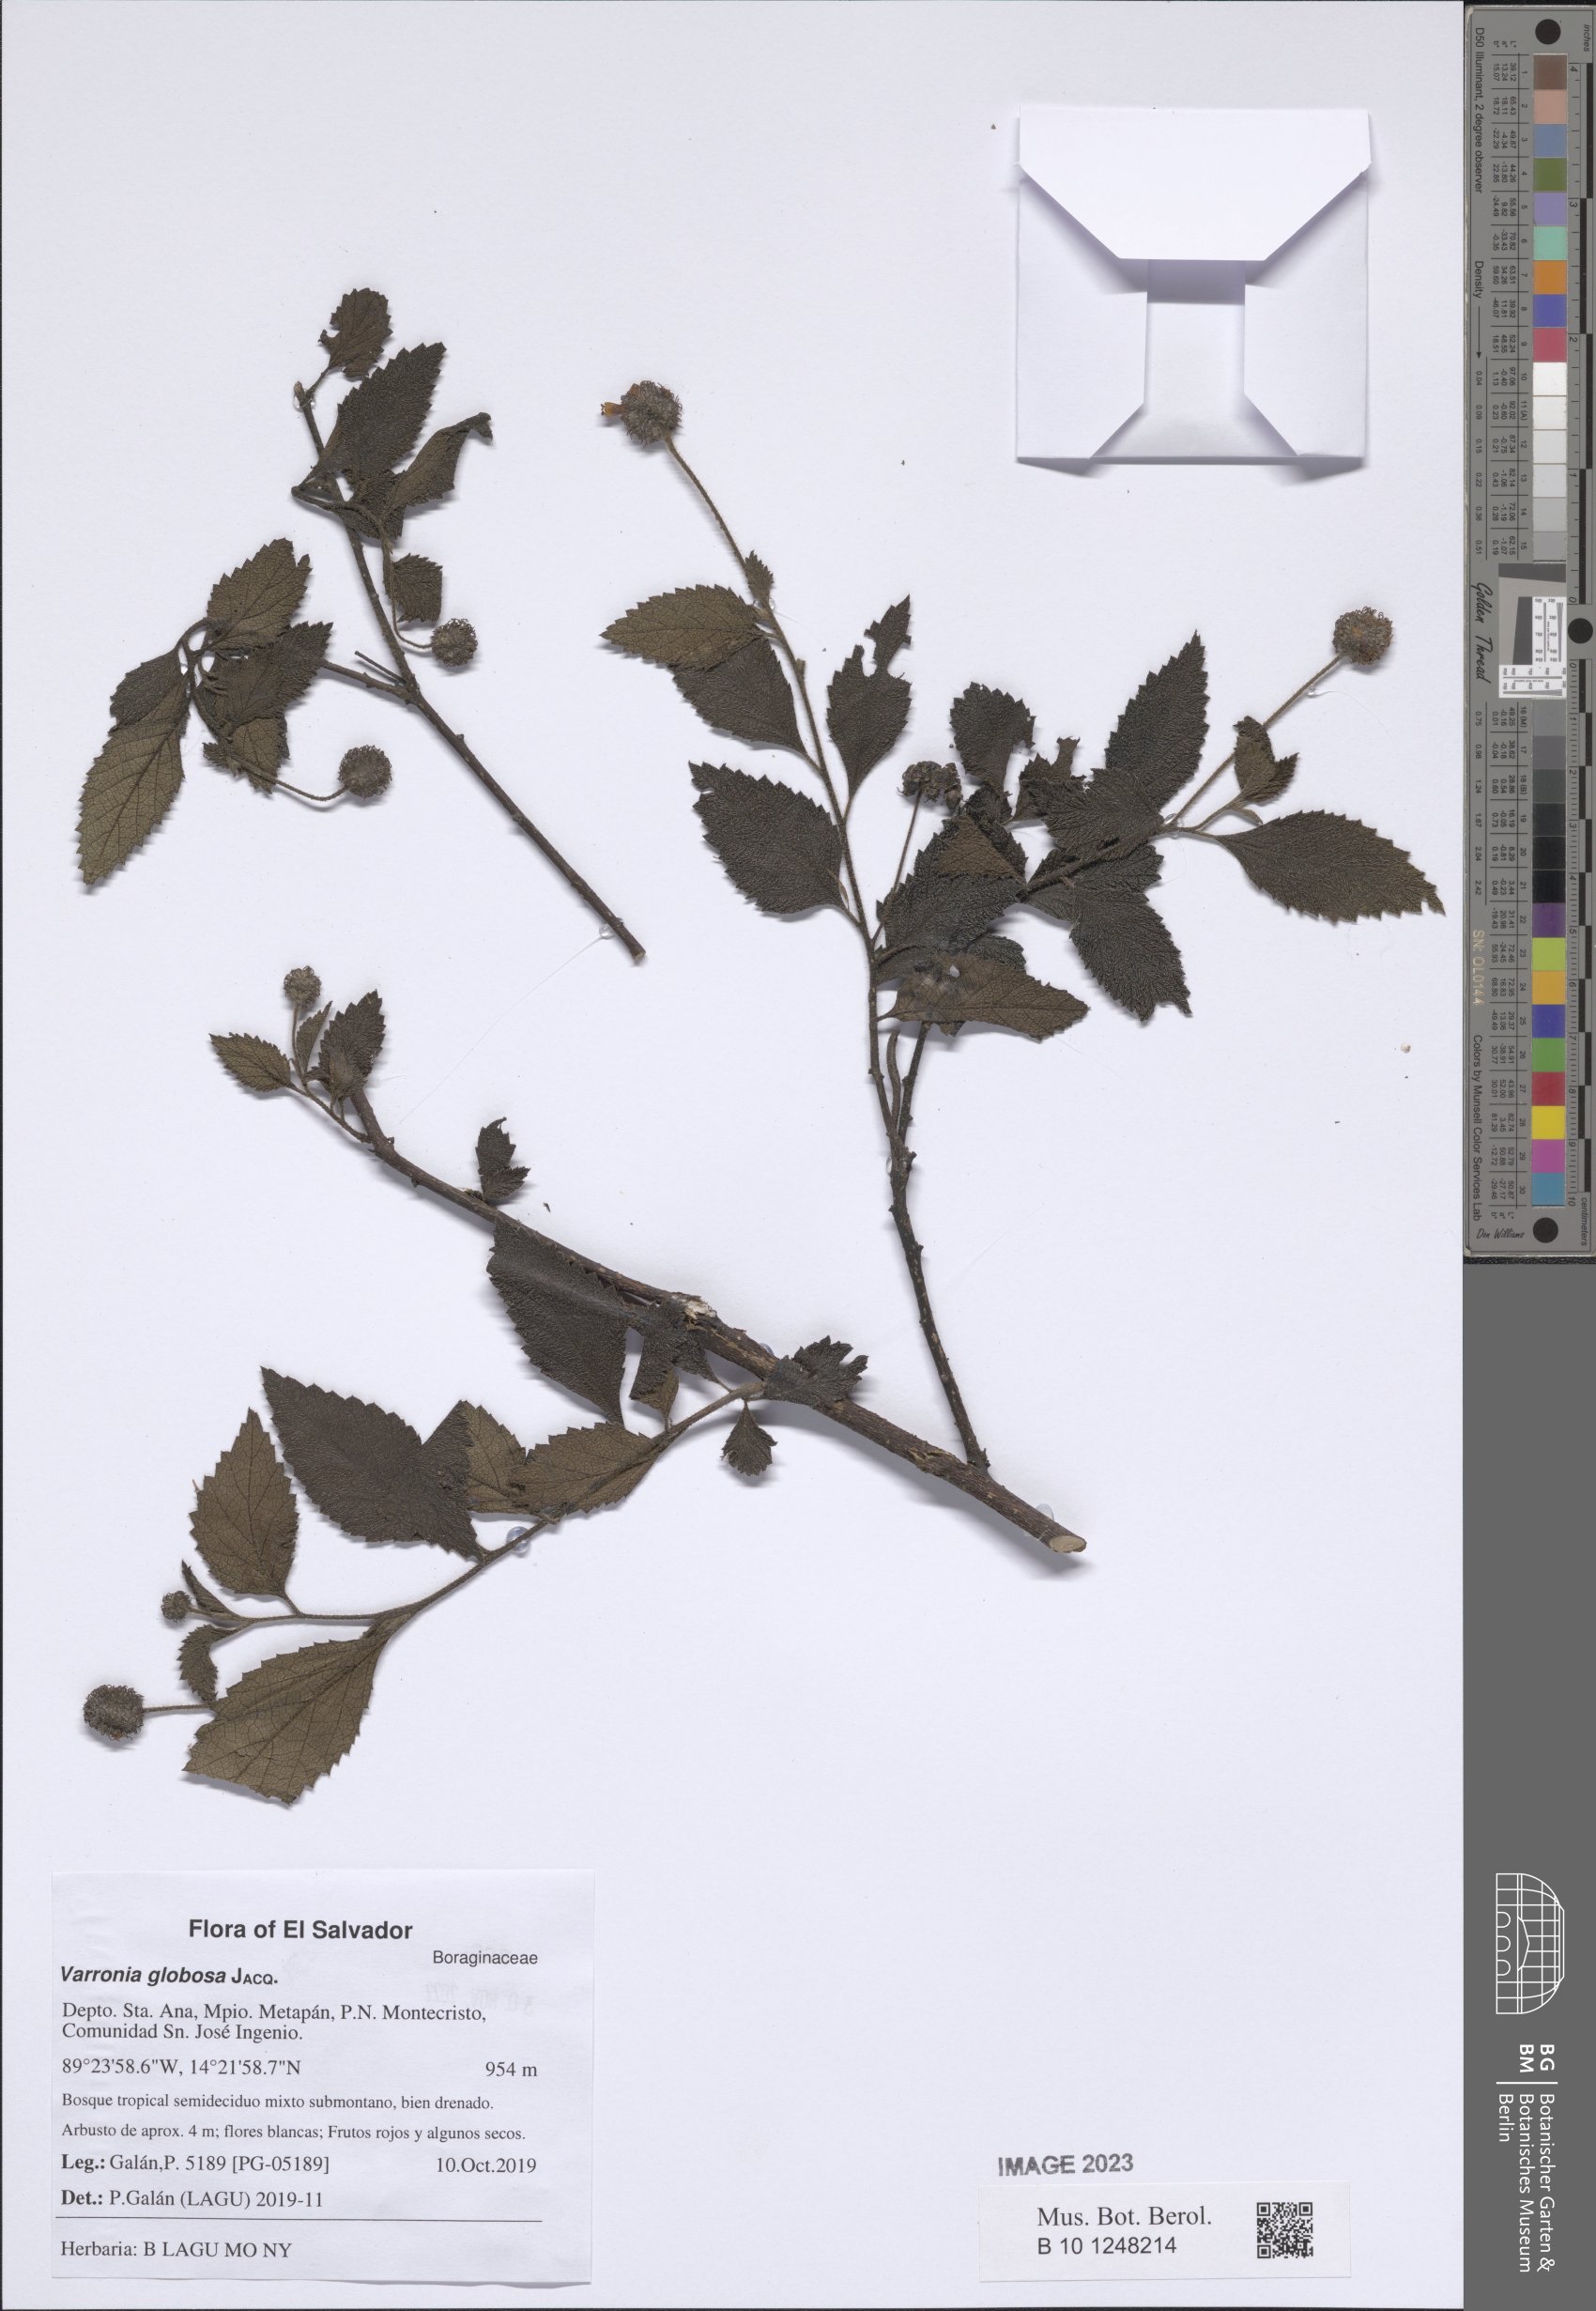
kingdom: Plantae
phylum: Tracheophyta
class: Magnoliopsida
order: Boraginales
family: Cordiaceae
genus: Varronia
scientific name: Varronia bullata
